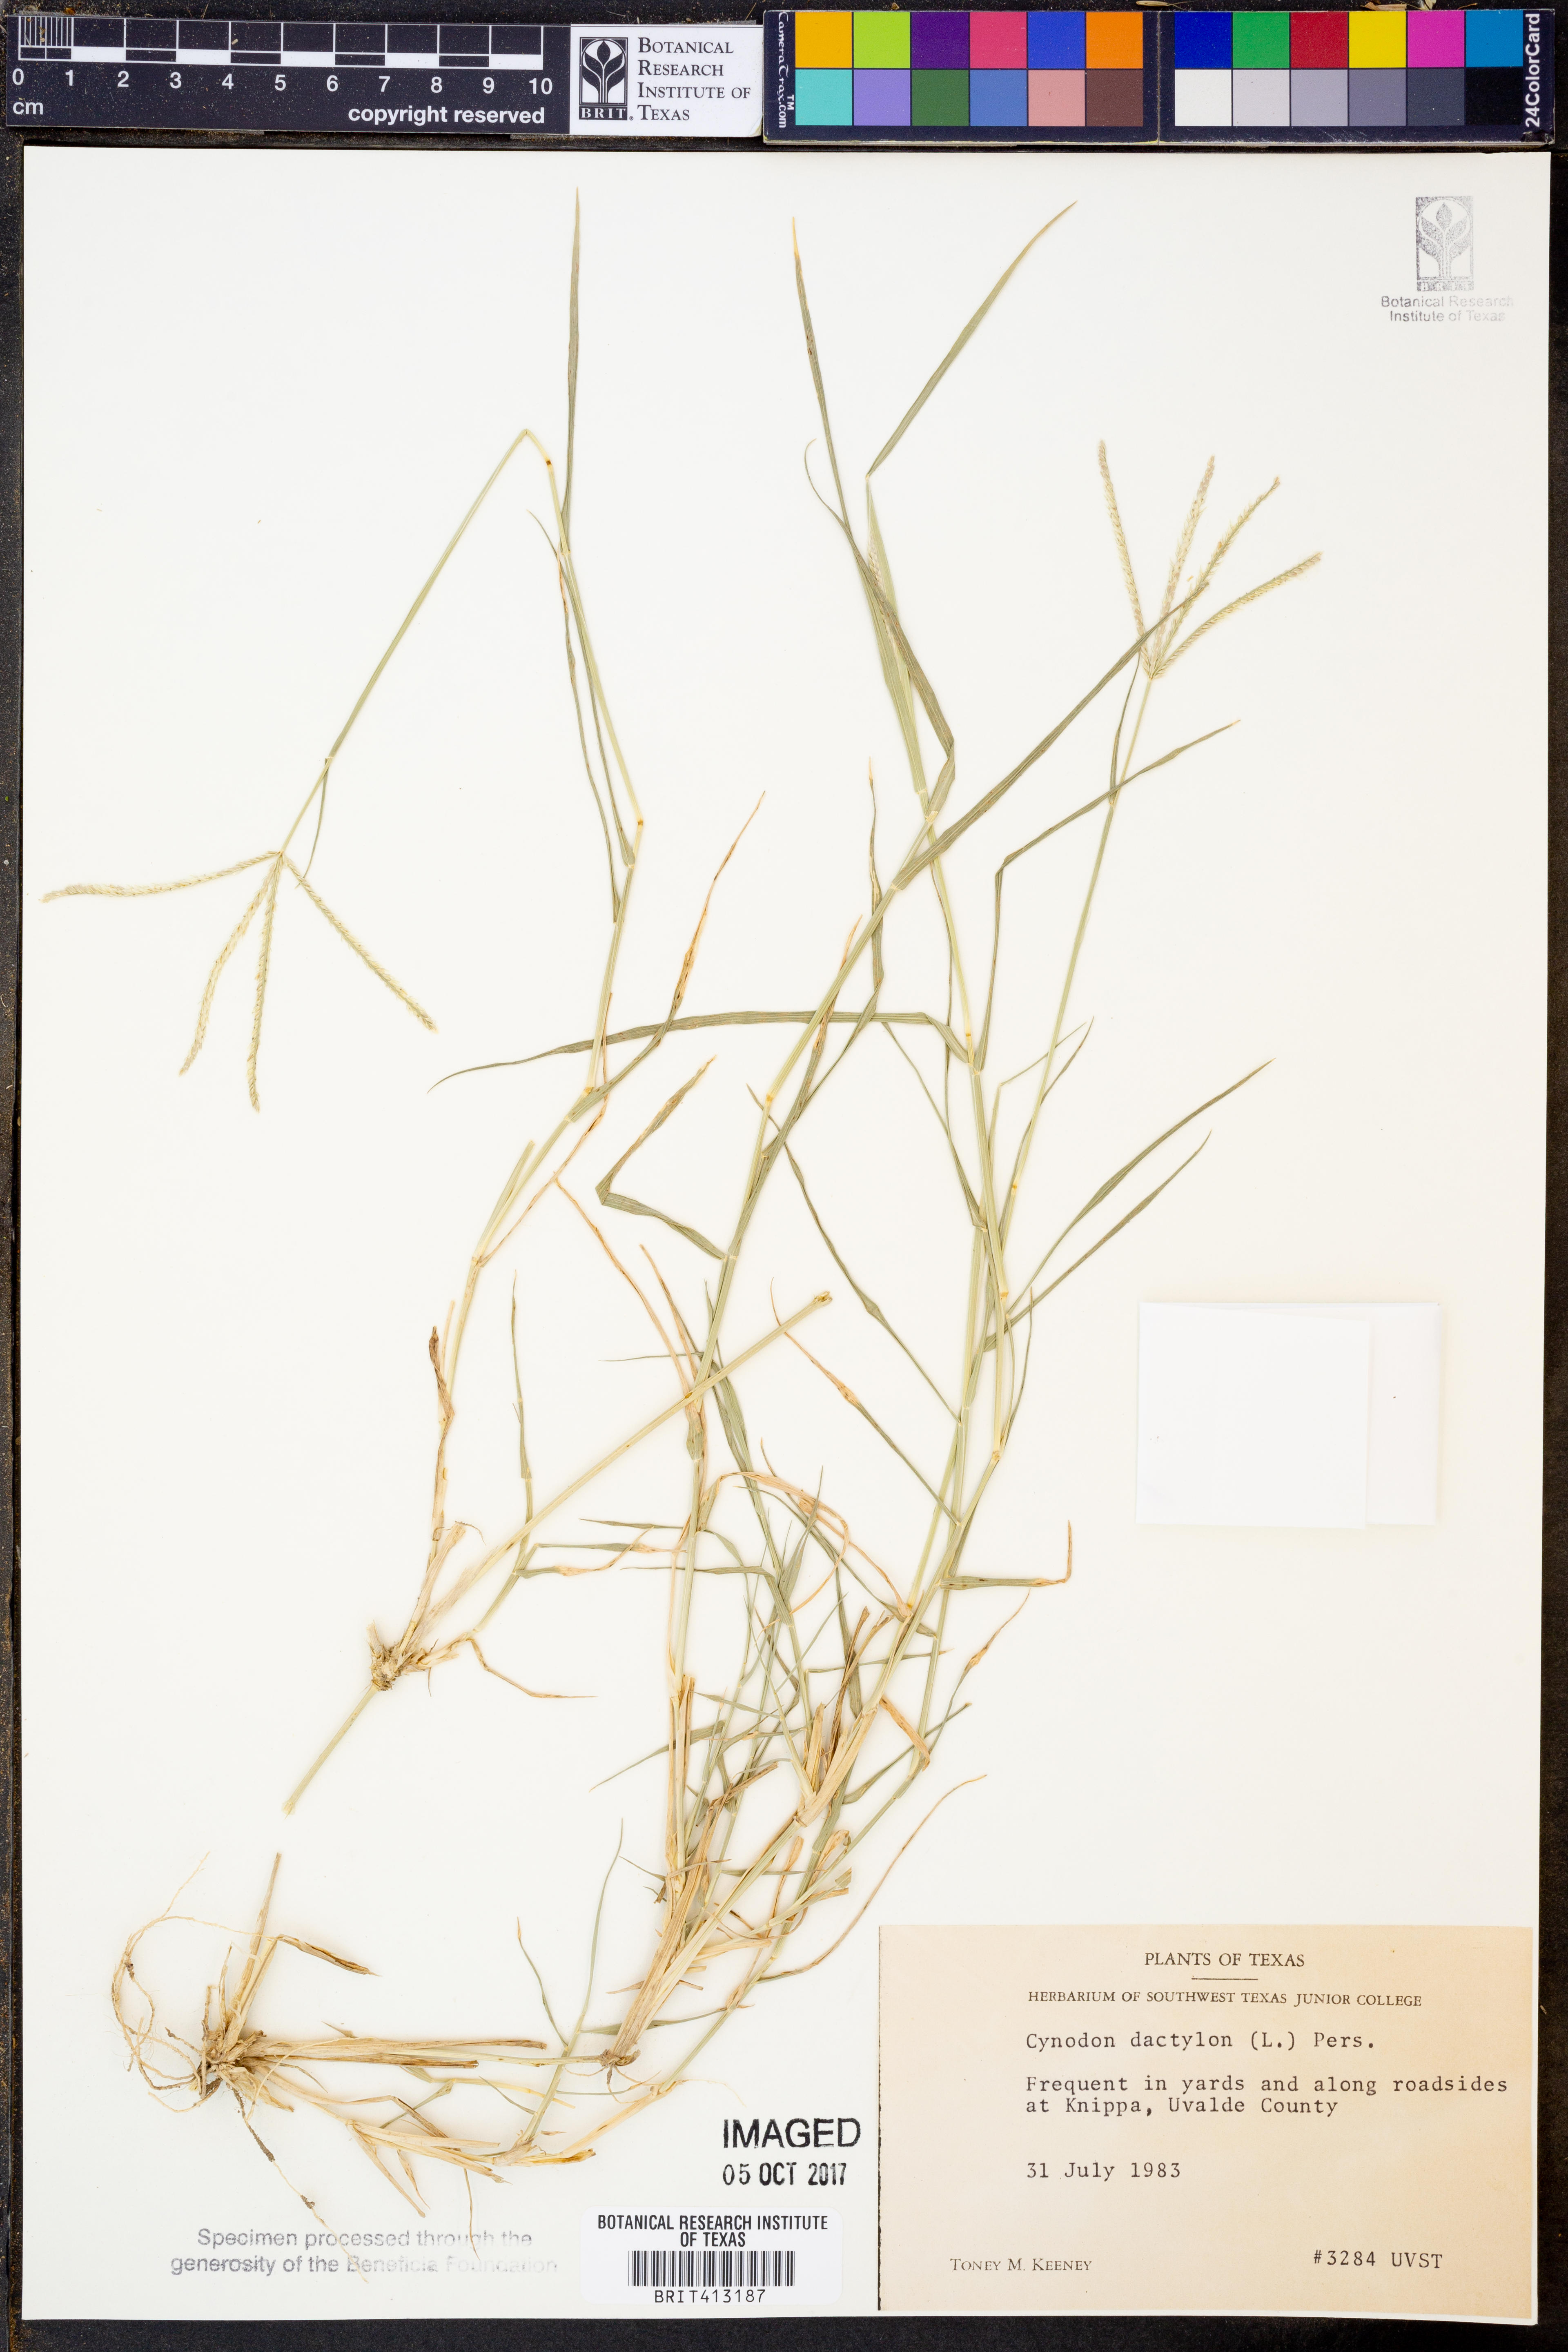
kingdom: Plantae
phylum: Tracheophyta
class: Liliopsida
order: Poales
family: Poaceae
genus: Cynodon
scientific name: Cynodon dactylon
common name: Bermuda grass
